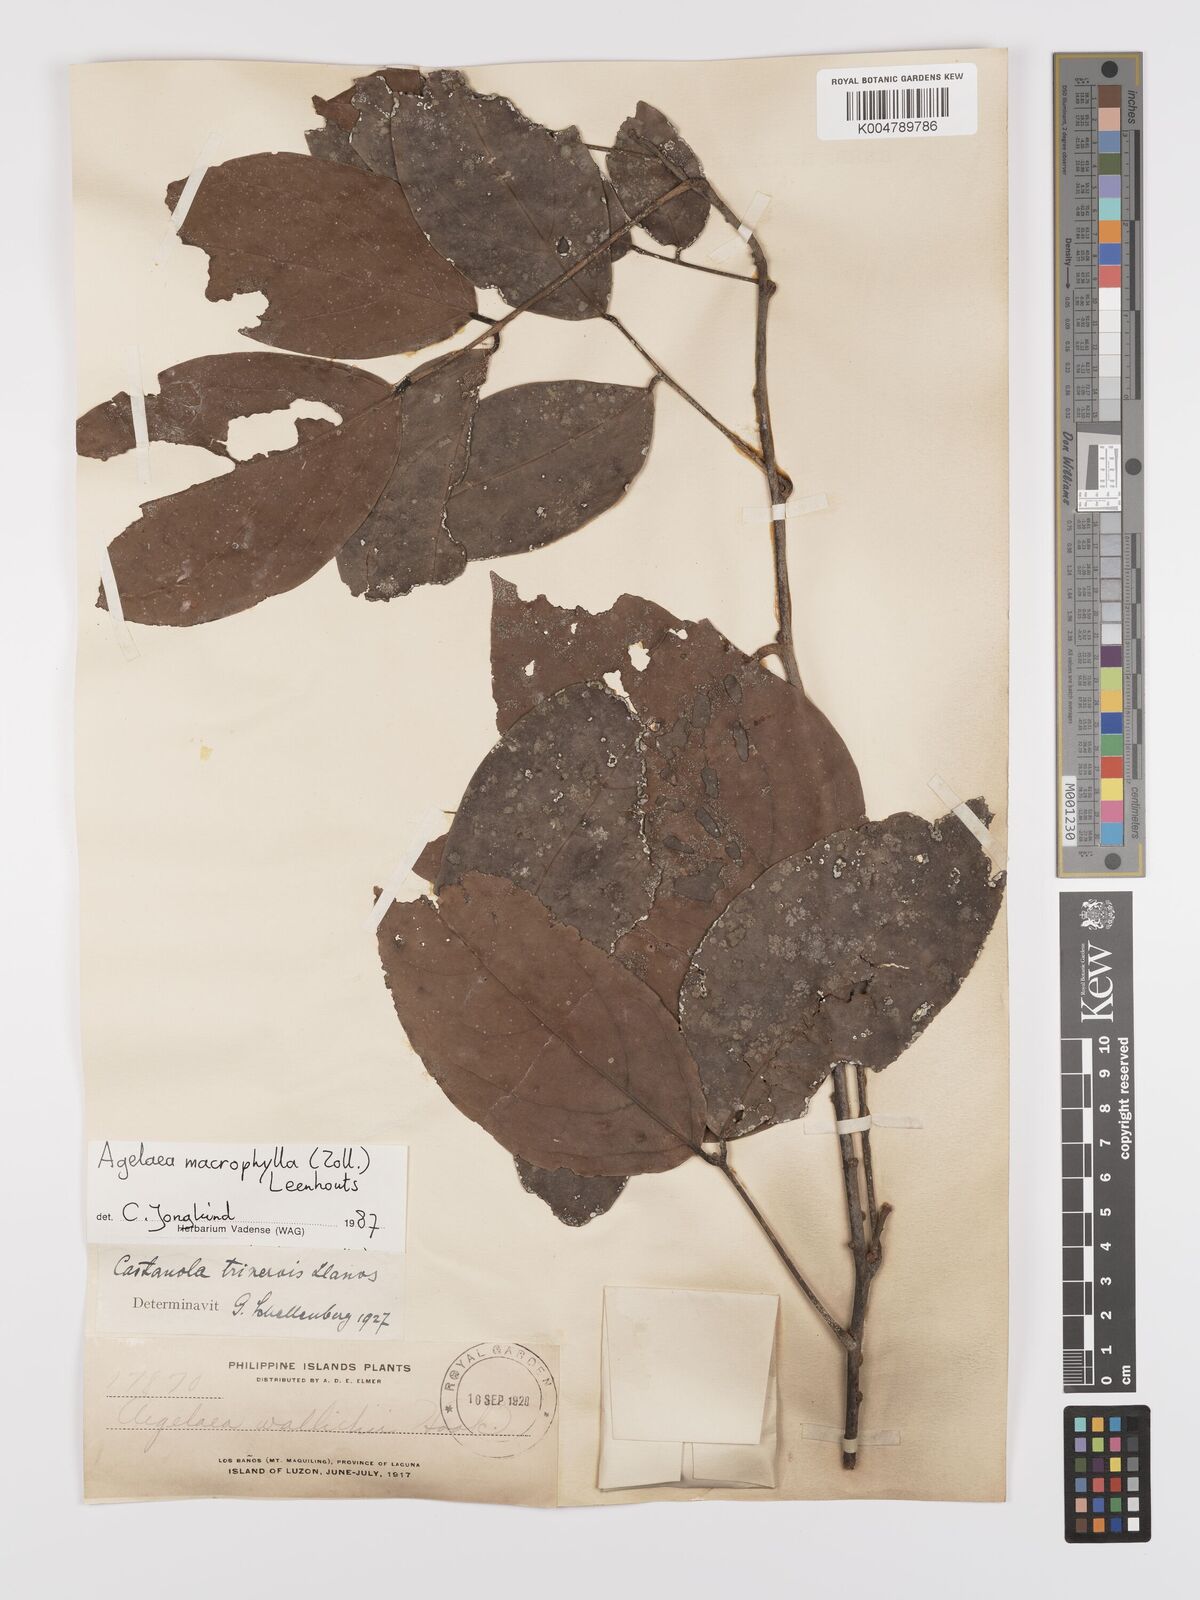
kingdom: Plantae
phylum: Tracheophyta
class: Magnoliopsida
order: Oxalidales
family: Connaraceae
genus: Agelaea
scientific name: Agelaea trinervis
